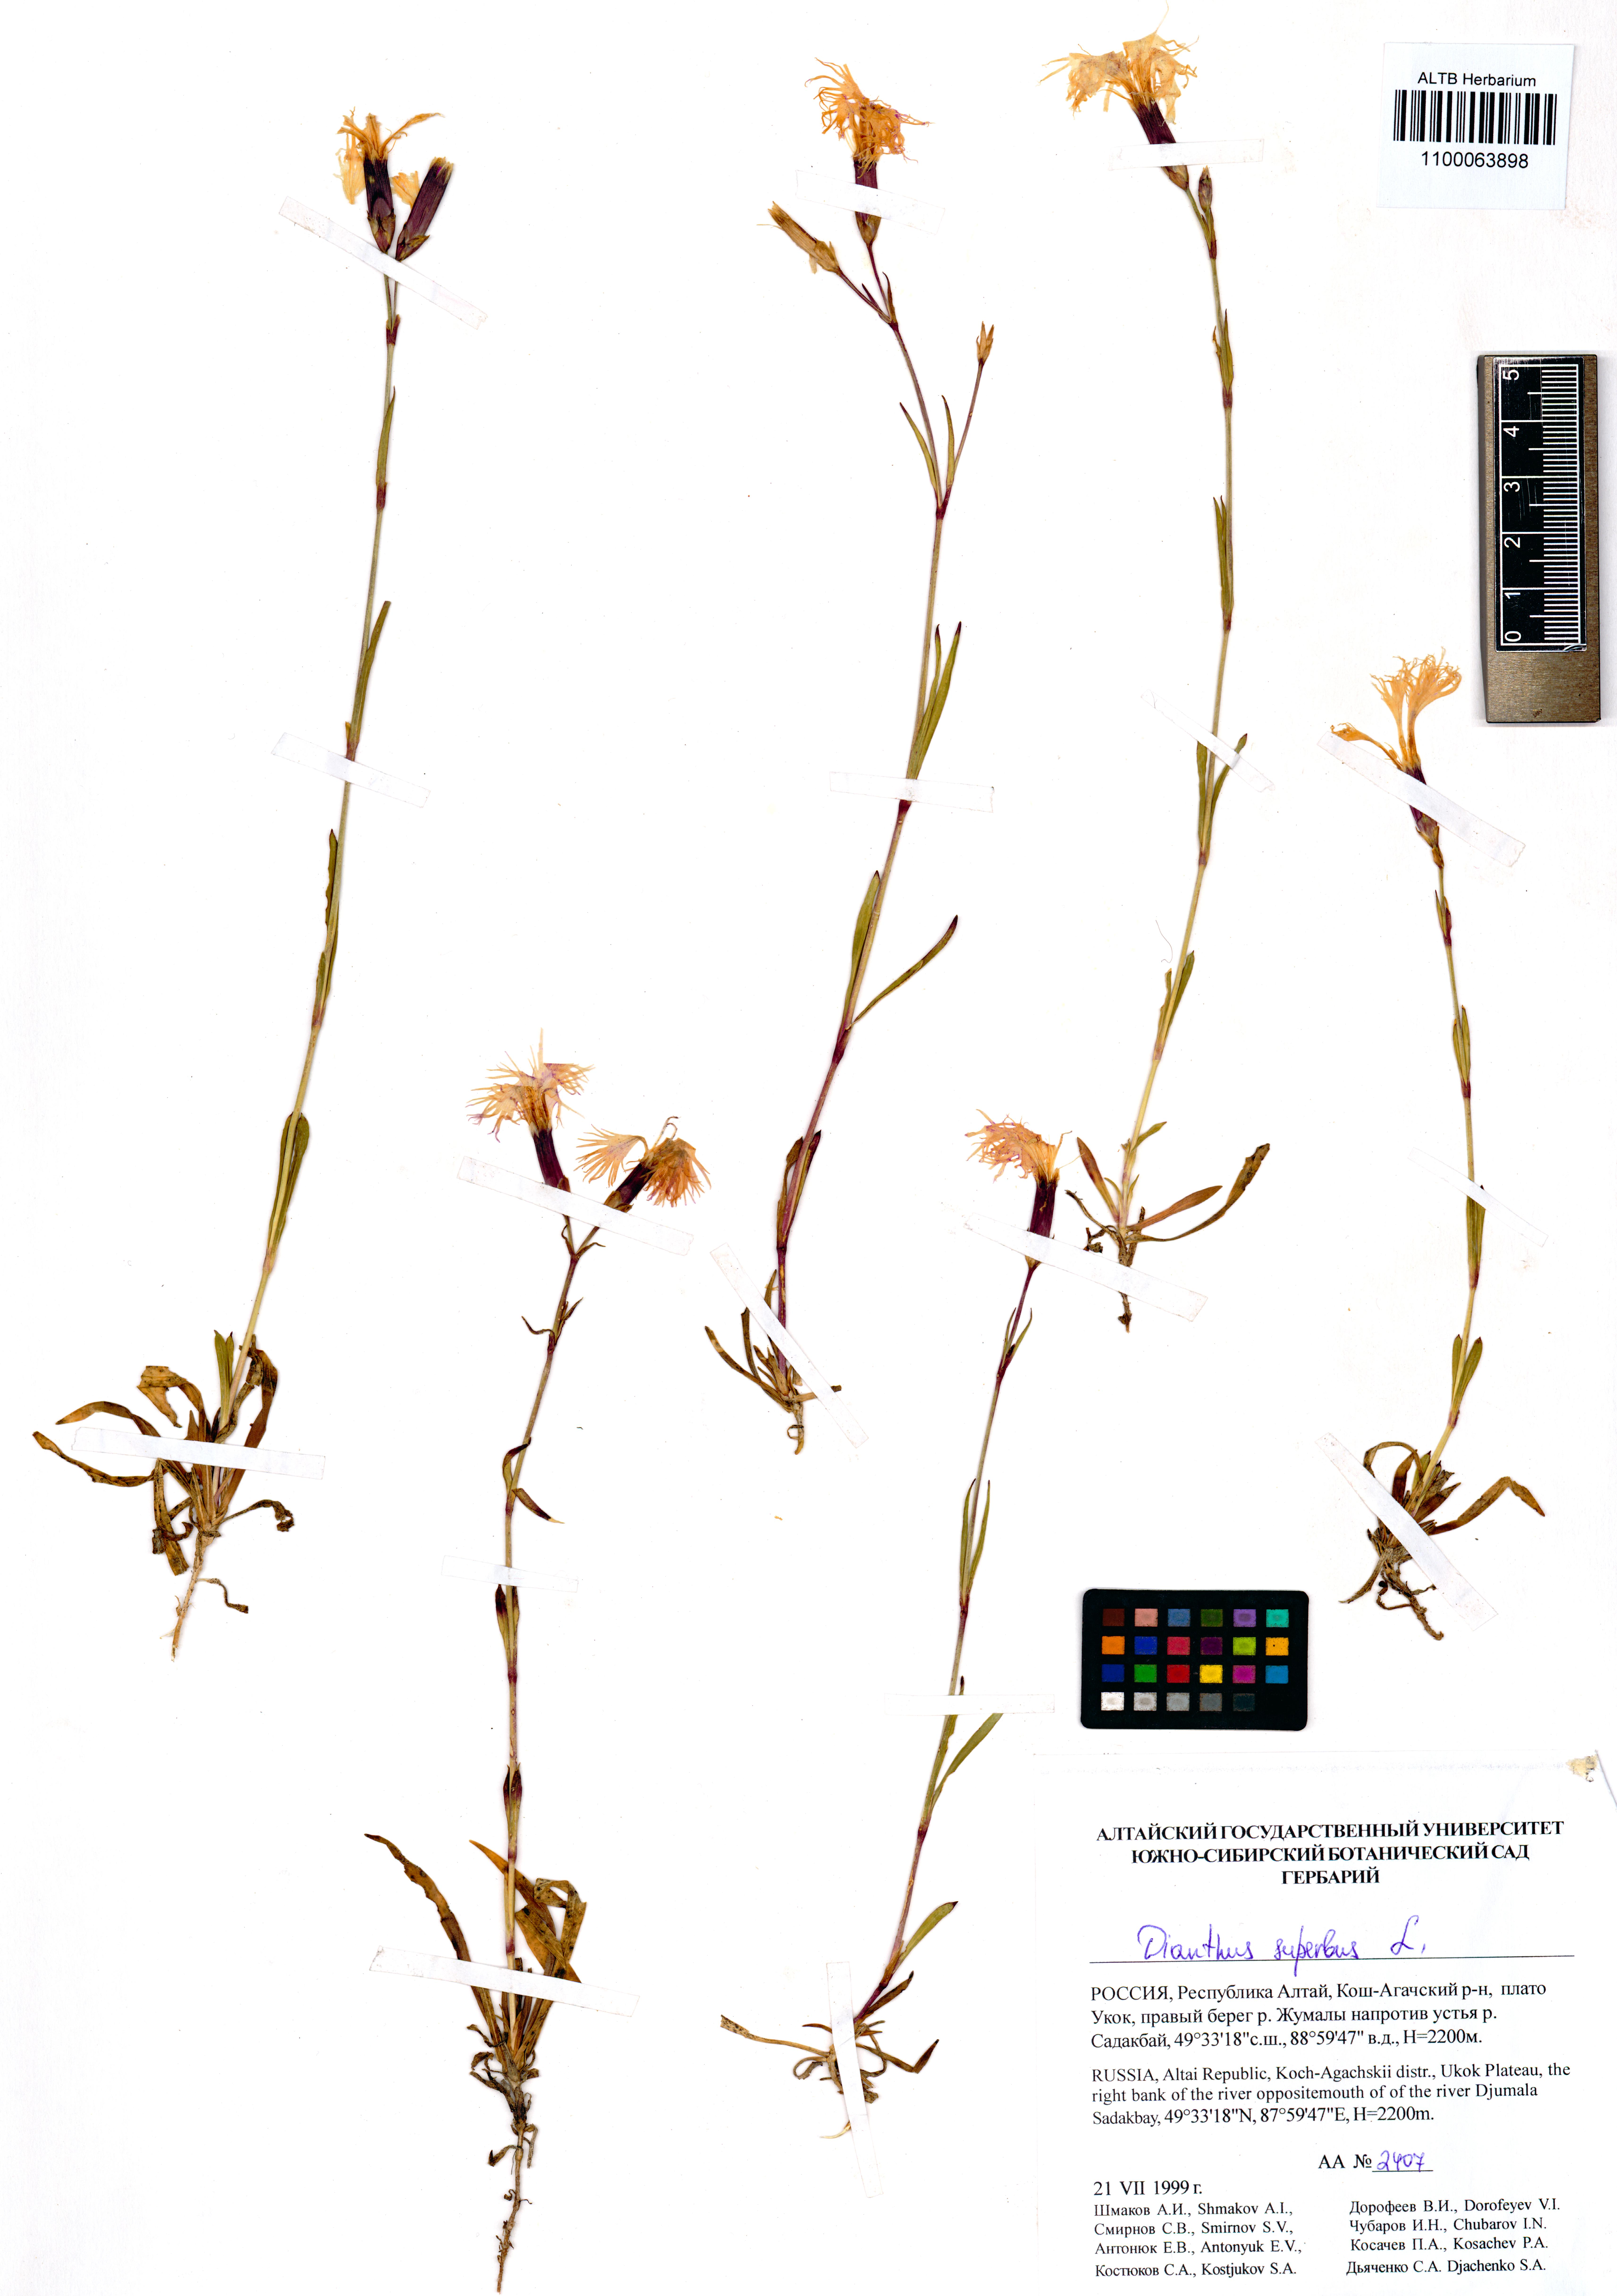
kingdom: Plantae
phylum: Tracheophyta
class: Magnoliopsida
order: Caryophyllales
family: Caryophyllaceae
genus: Dianthus
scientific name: Dianthus superbus
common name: Fringed pink
